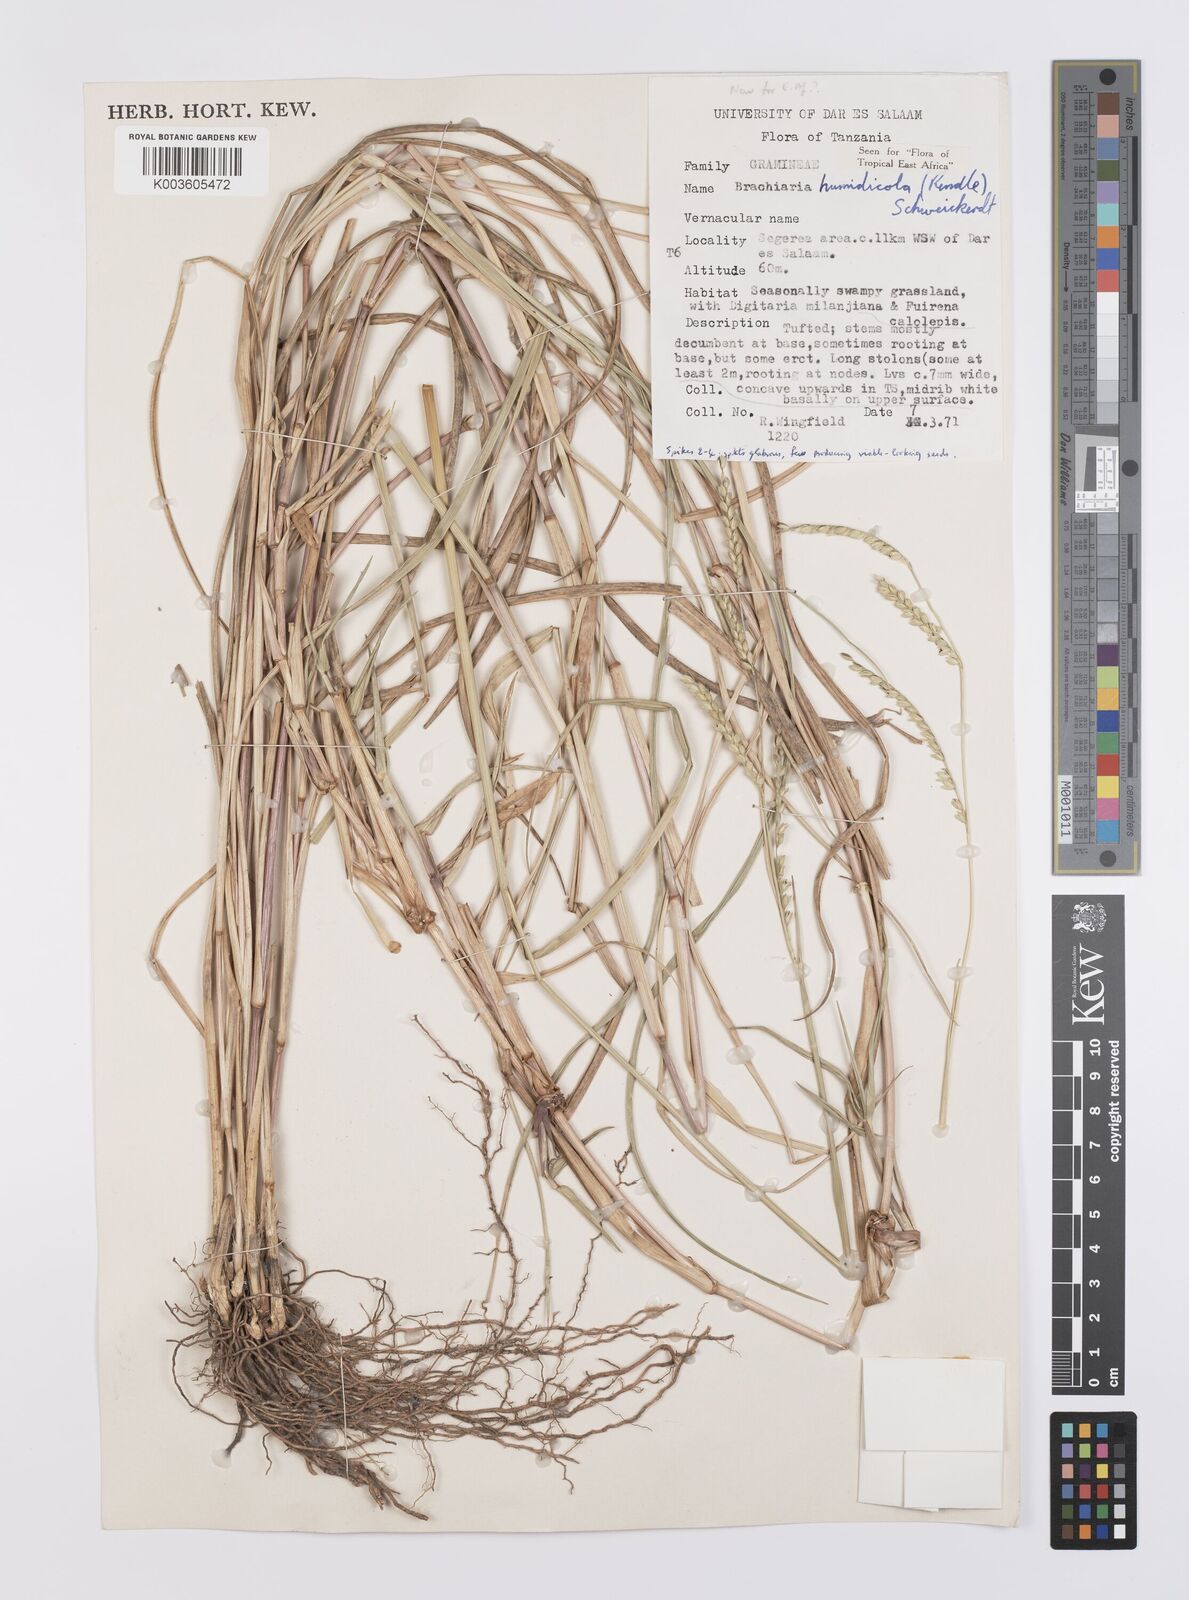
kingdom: Plantae
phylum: Tracheophyta
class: Liliopsida
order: Poales
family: Poaceae
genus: Urochloa
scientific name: Urochloa dictyoneura
